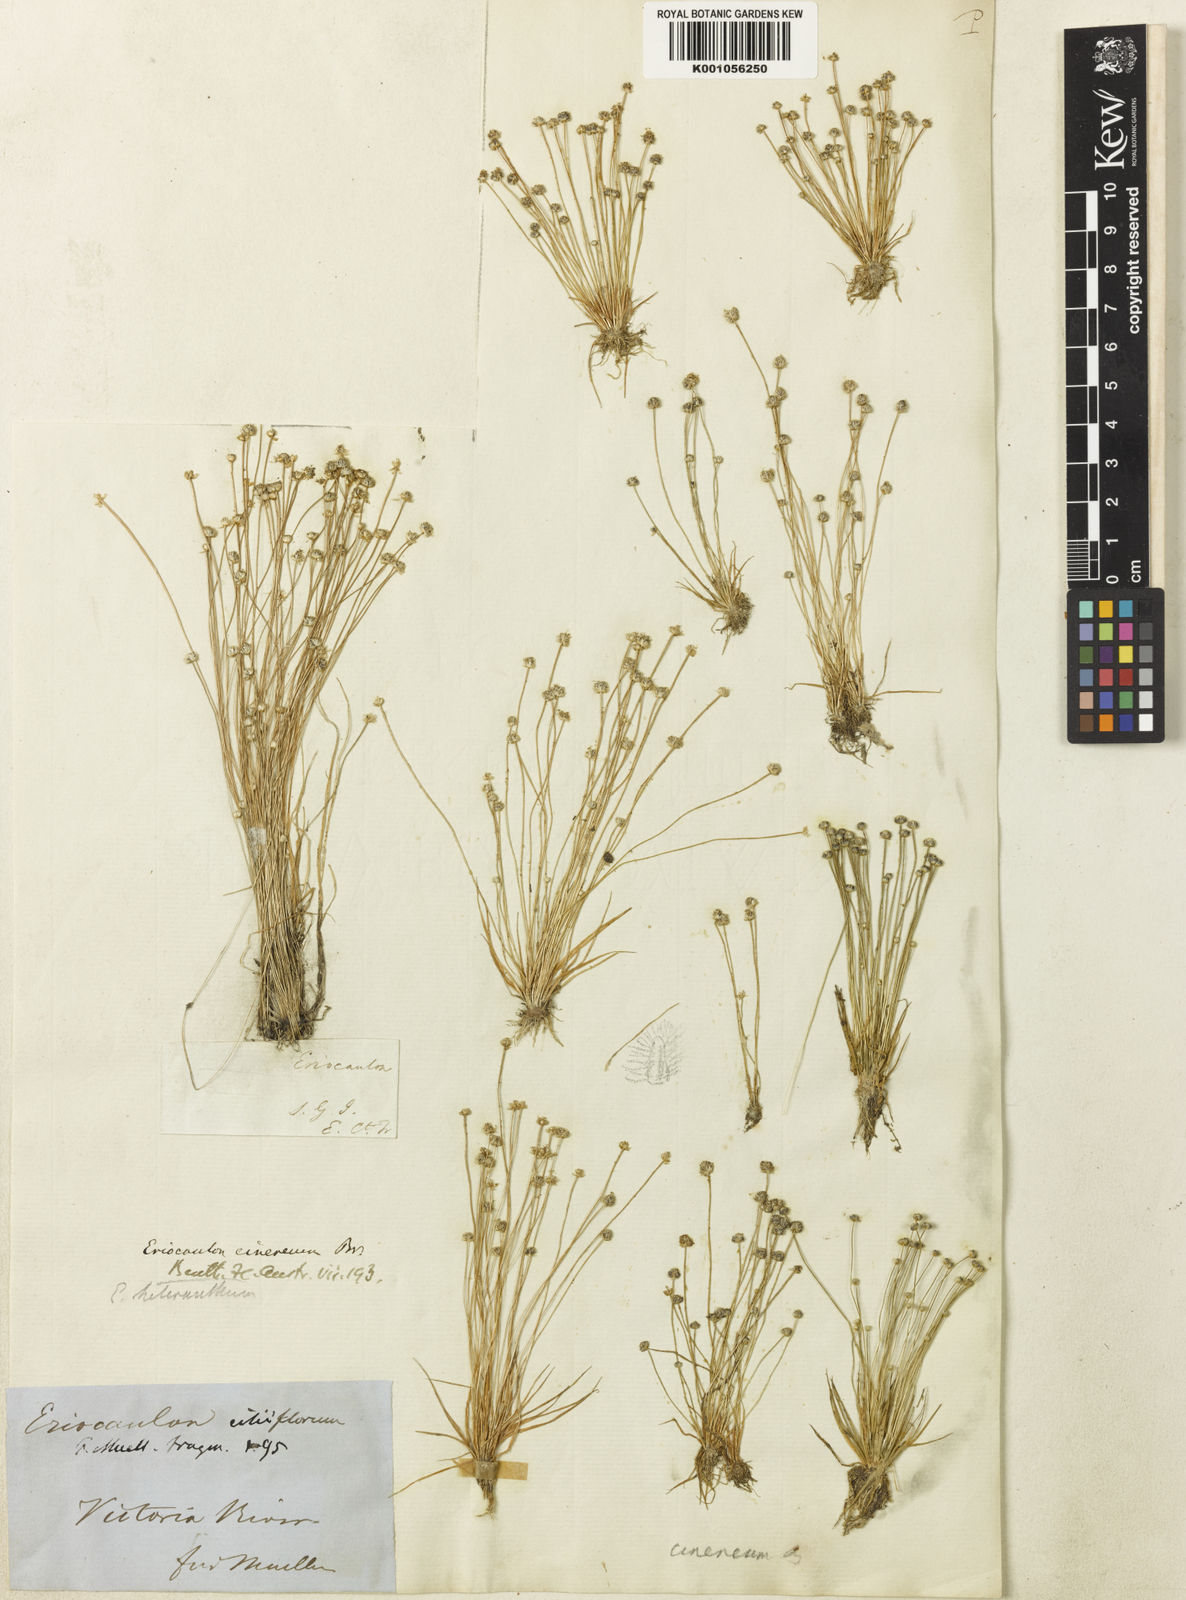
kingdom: Plantae
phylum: Tracheophyta
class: Liliopsida
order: Poales
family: Eriocaulaceae
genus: Eriocaulon
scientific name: Eriocaulon cinereum
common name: Ashy pipewort
